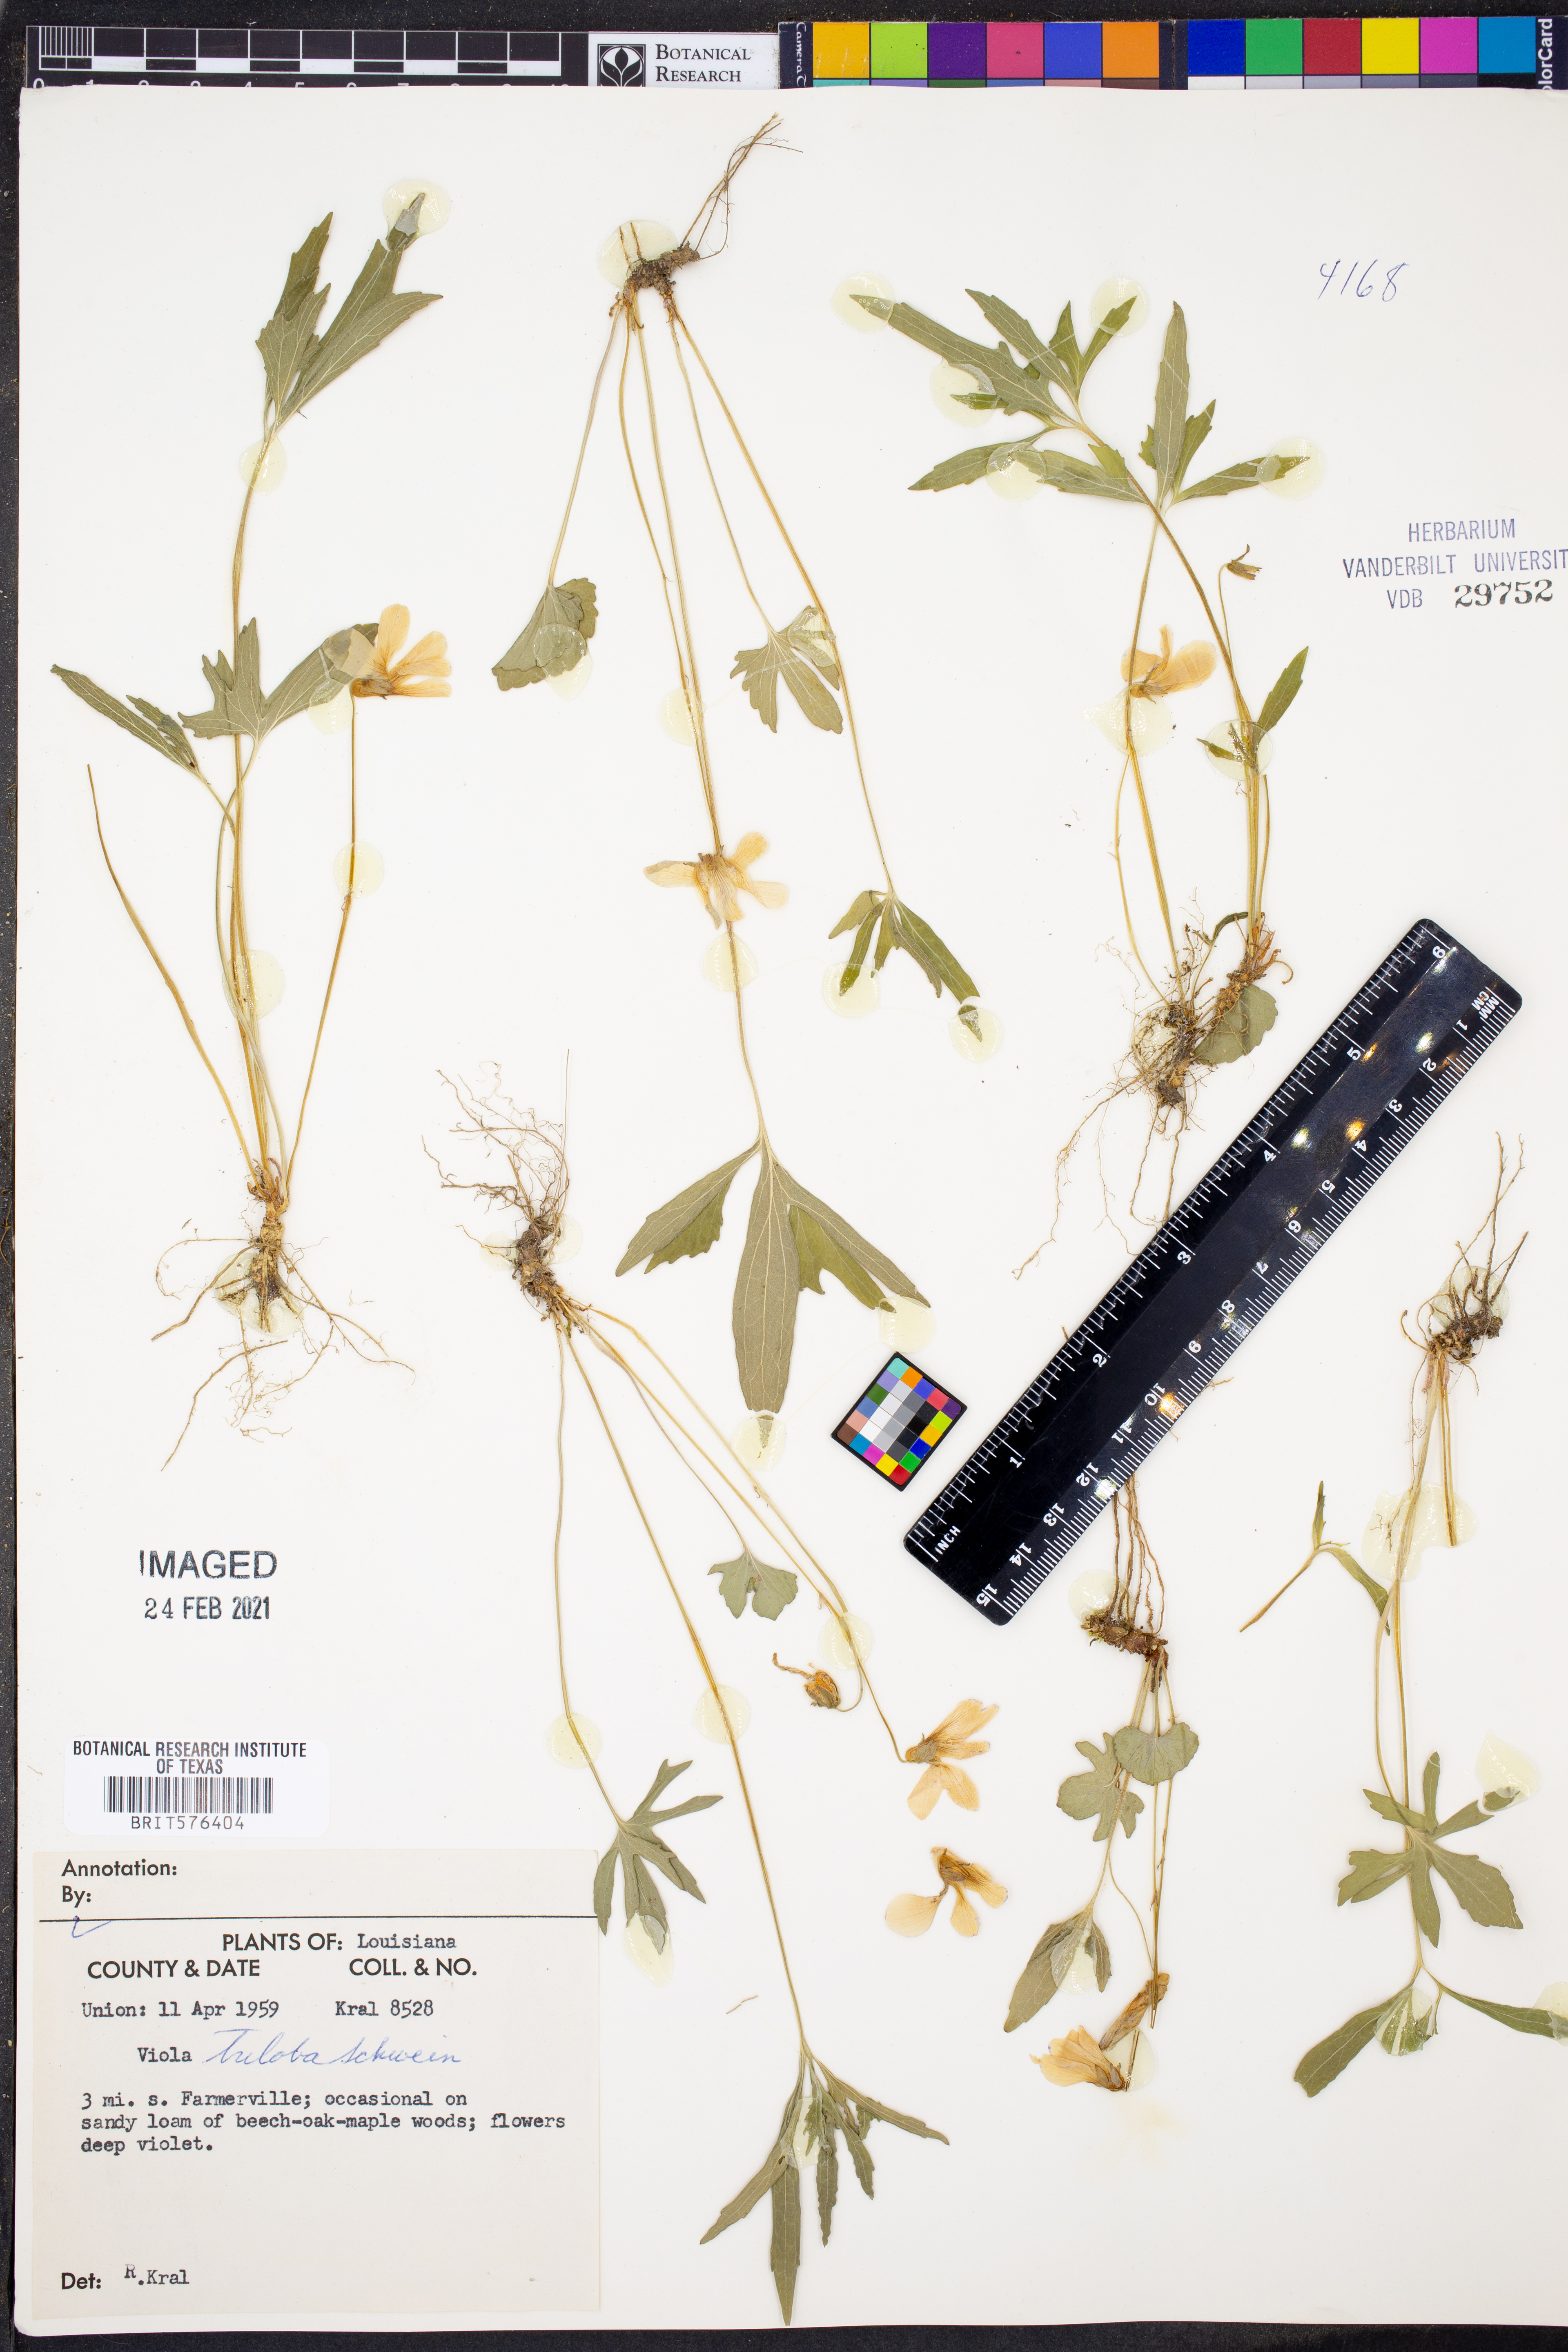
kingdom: Plantae
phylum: Tracheophyta
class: Magnoliopsida
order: Malpighiales
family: Violaceae
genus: Viola
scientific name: Viola palmata
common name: Early blue violet
